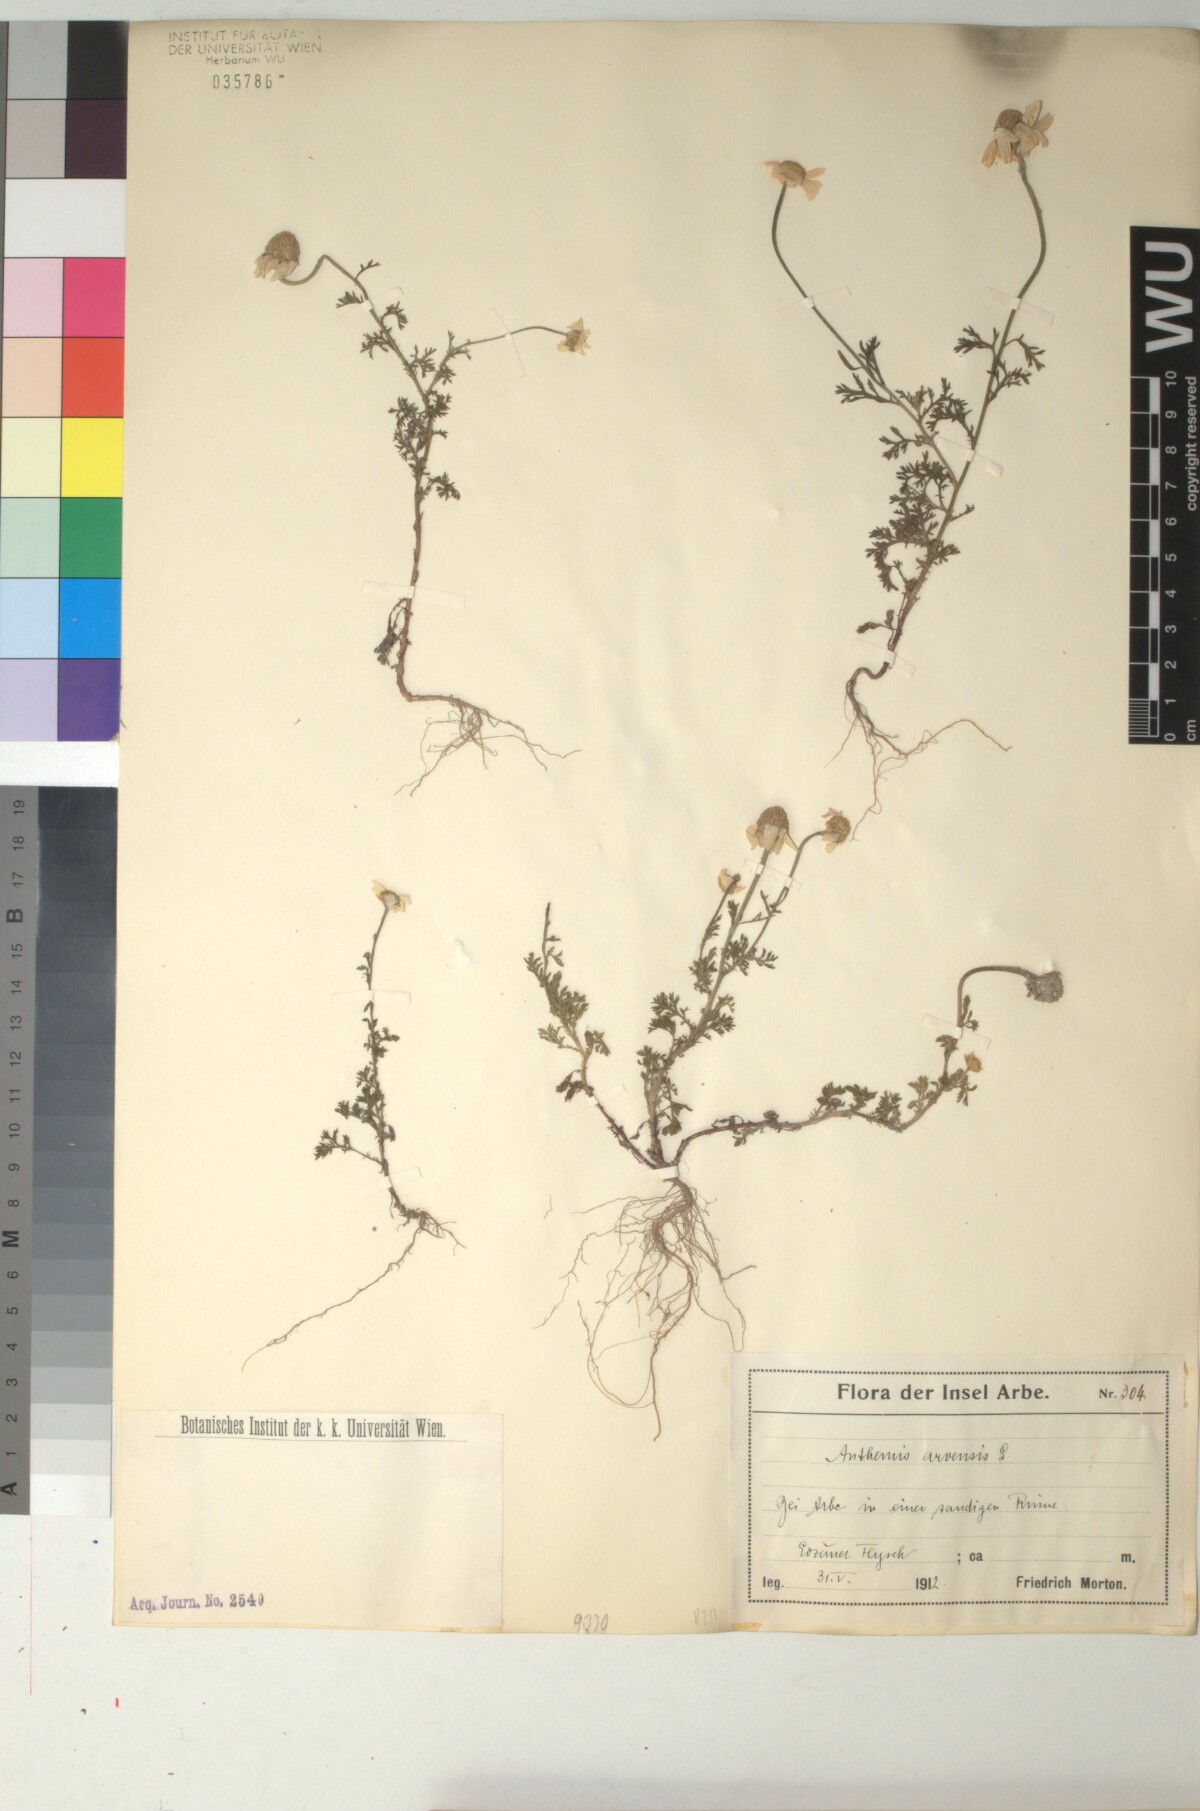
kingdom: Plantae
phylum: Tracheophyta
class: Magnoliopsida
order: Asterales
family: Asteraceae
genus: Anthemis
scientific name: Anthemis arvensis
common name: Corn chamomile
